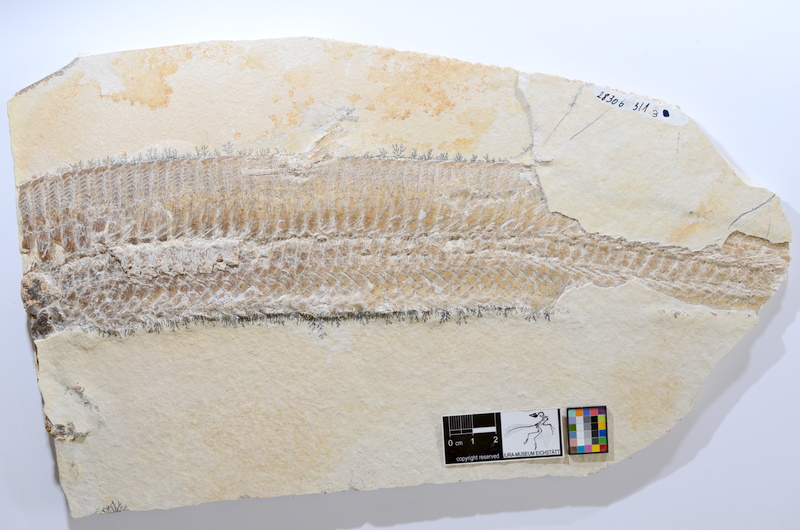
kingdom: Animalia
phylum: Chordata
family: Aspidorhynchidae
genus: Aspidorhynchus
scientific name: Aspidorhynchus acutirostris
